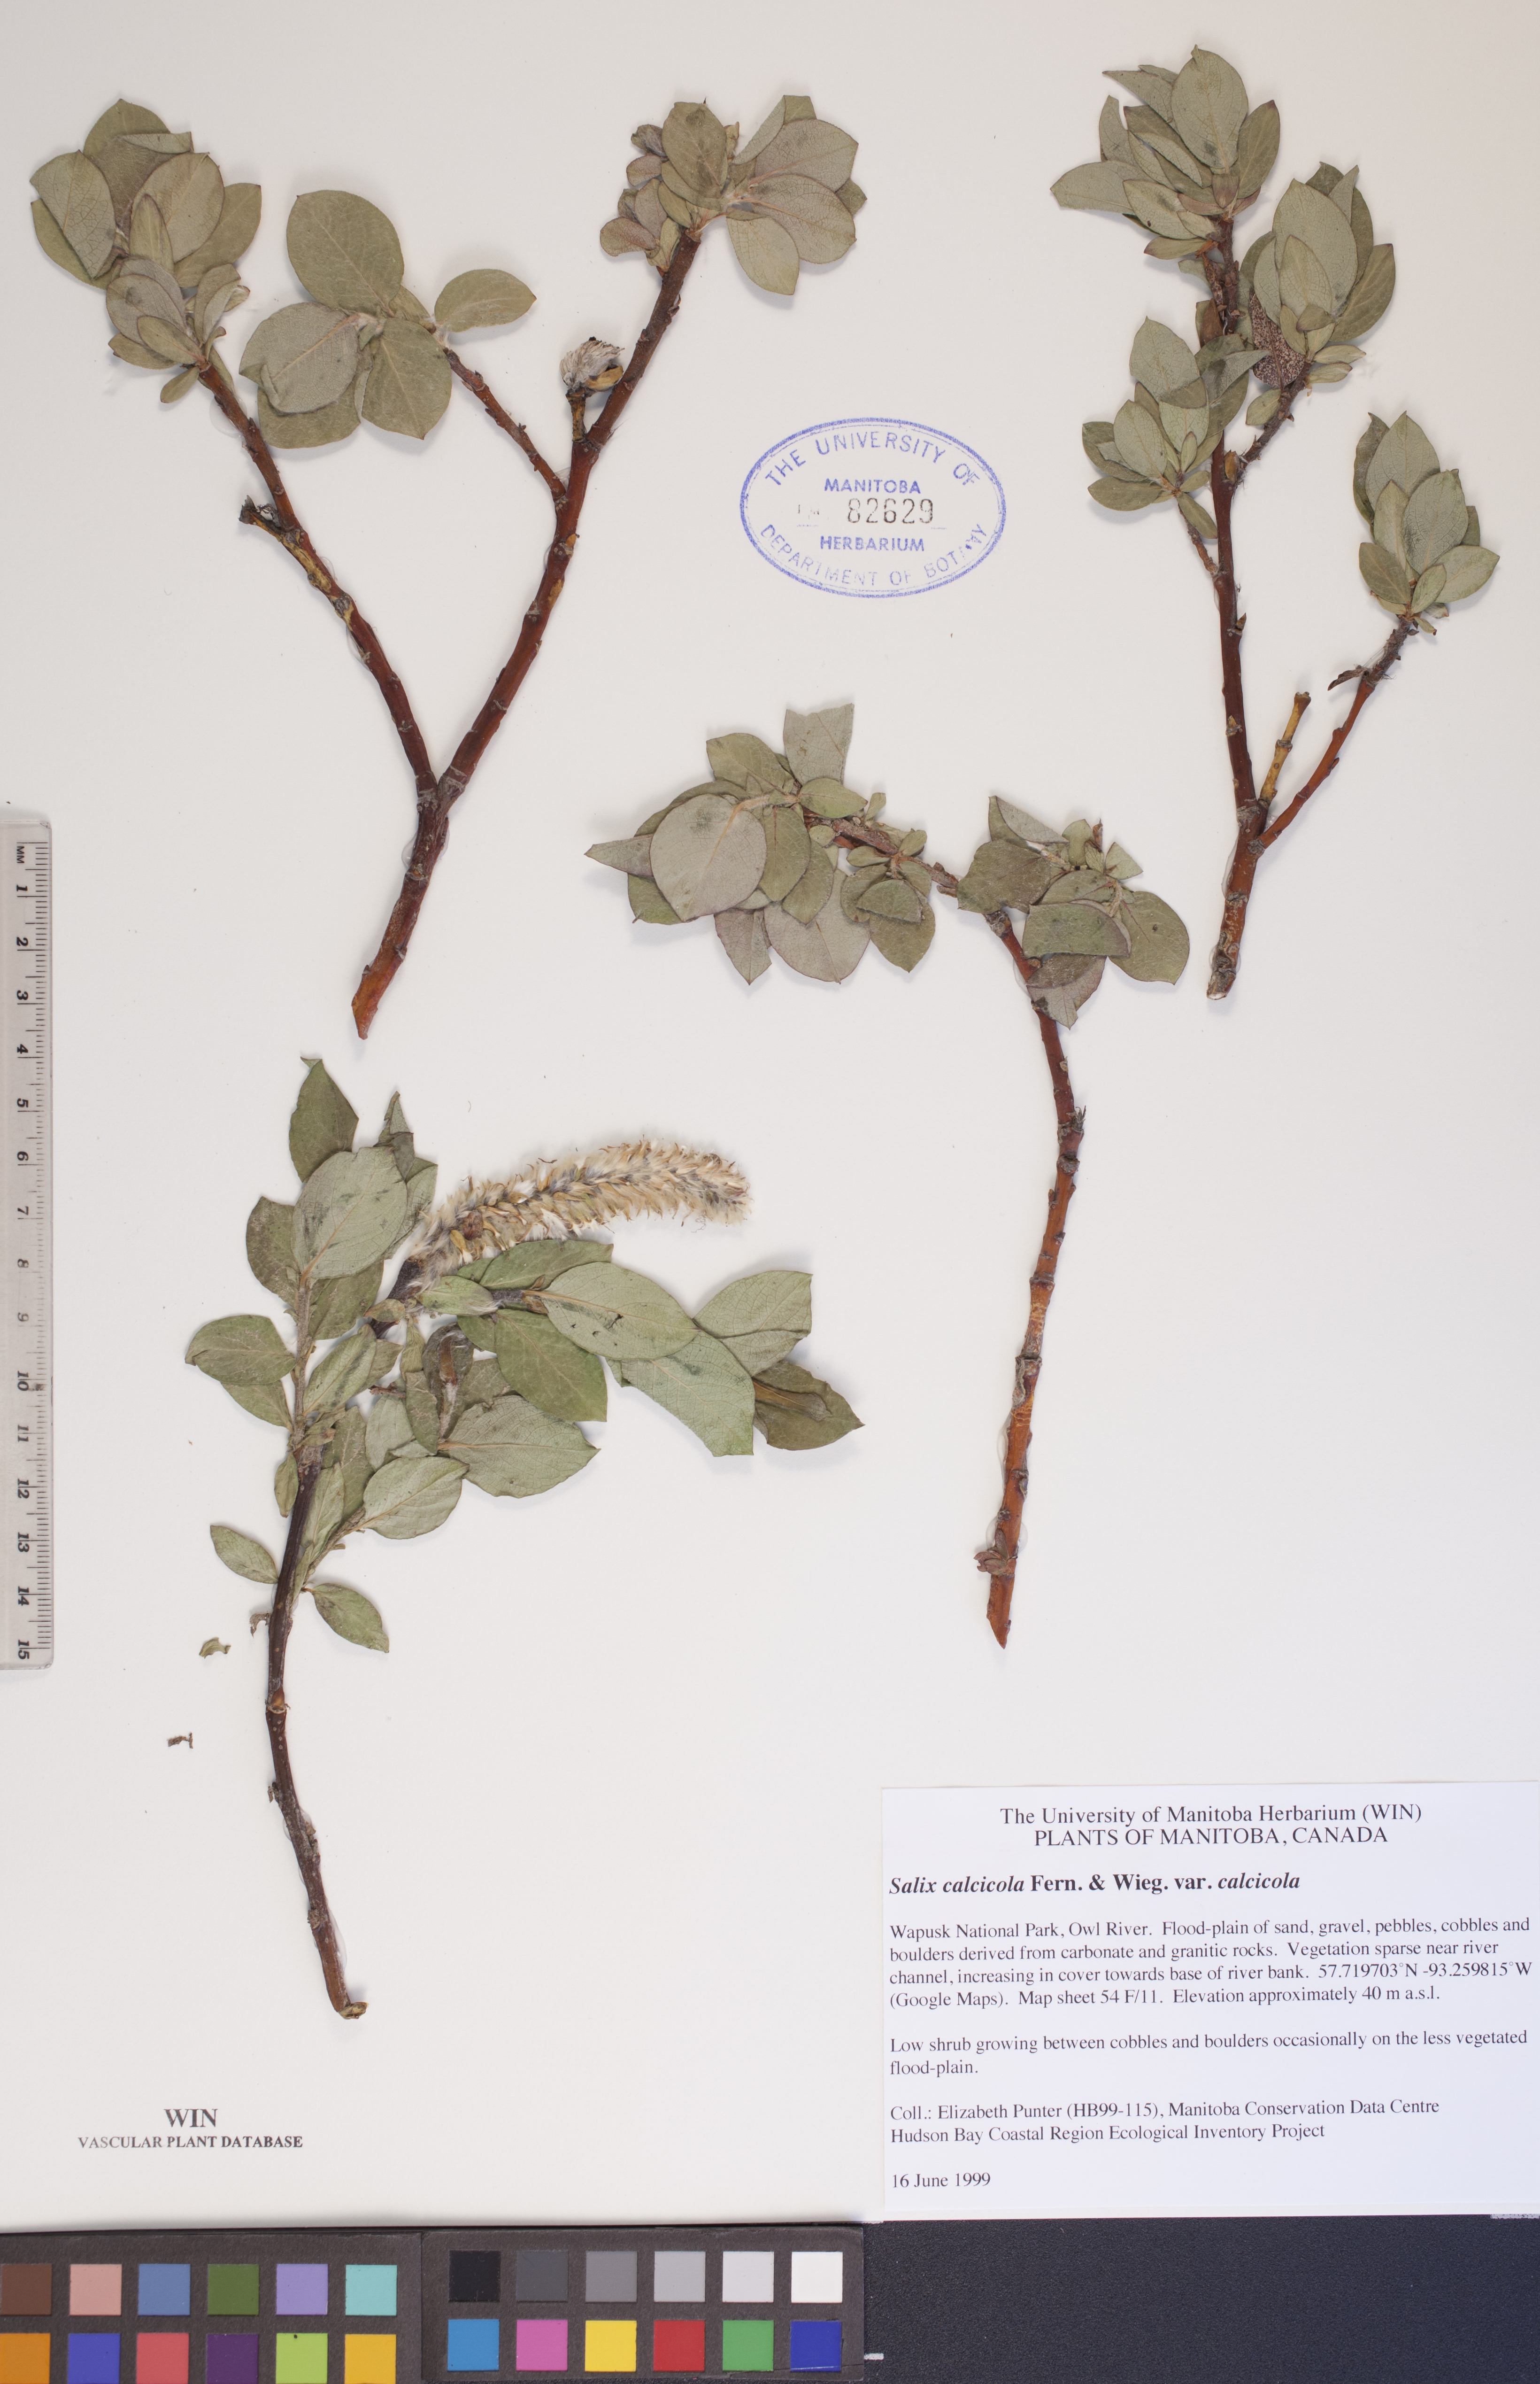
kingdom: Plantae
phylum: Tracheophyta
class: Magnoliopsida
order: Malpighiales
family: Salicaceae
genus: Salix
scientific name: Salix calcicola
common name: Calcareous willow
